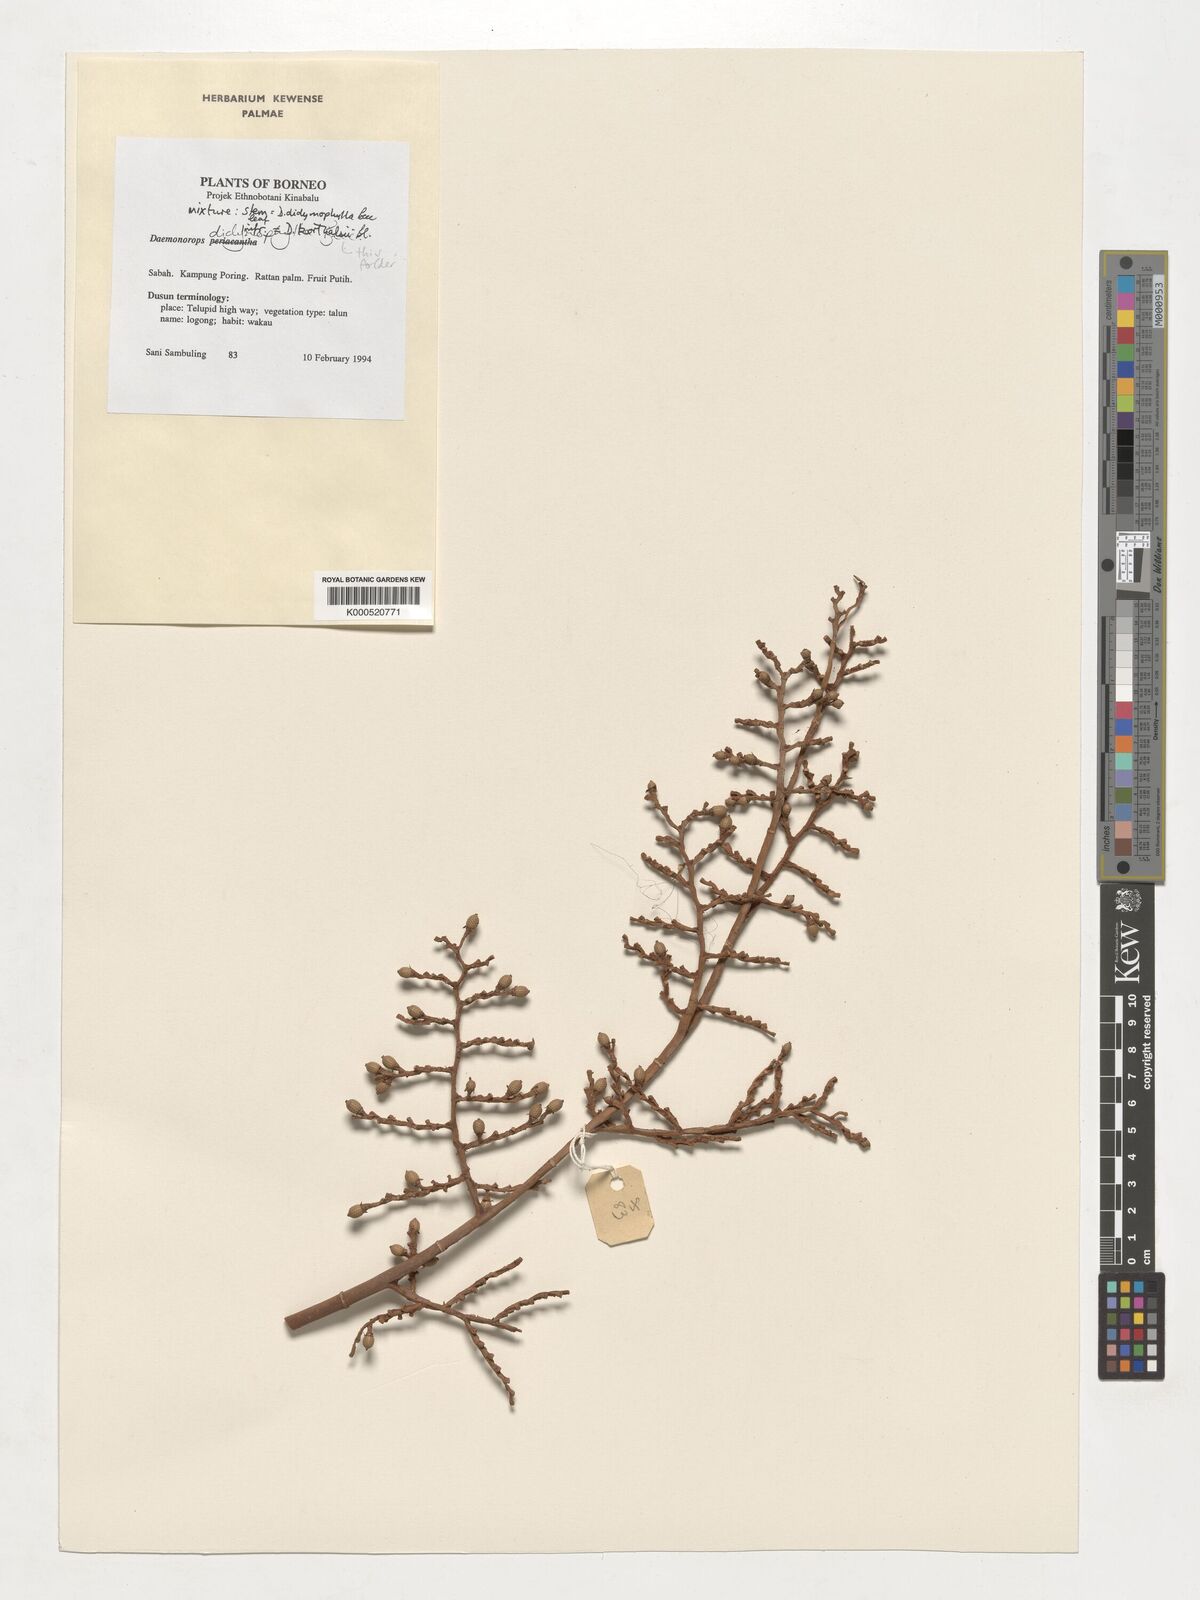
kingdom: Plantae
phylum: Tracheophyta
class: Liliopsida
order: Arecales
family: Arecaceae
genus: Calamus
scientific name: Calamus hirsutus
